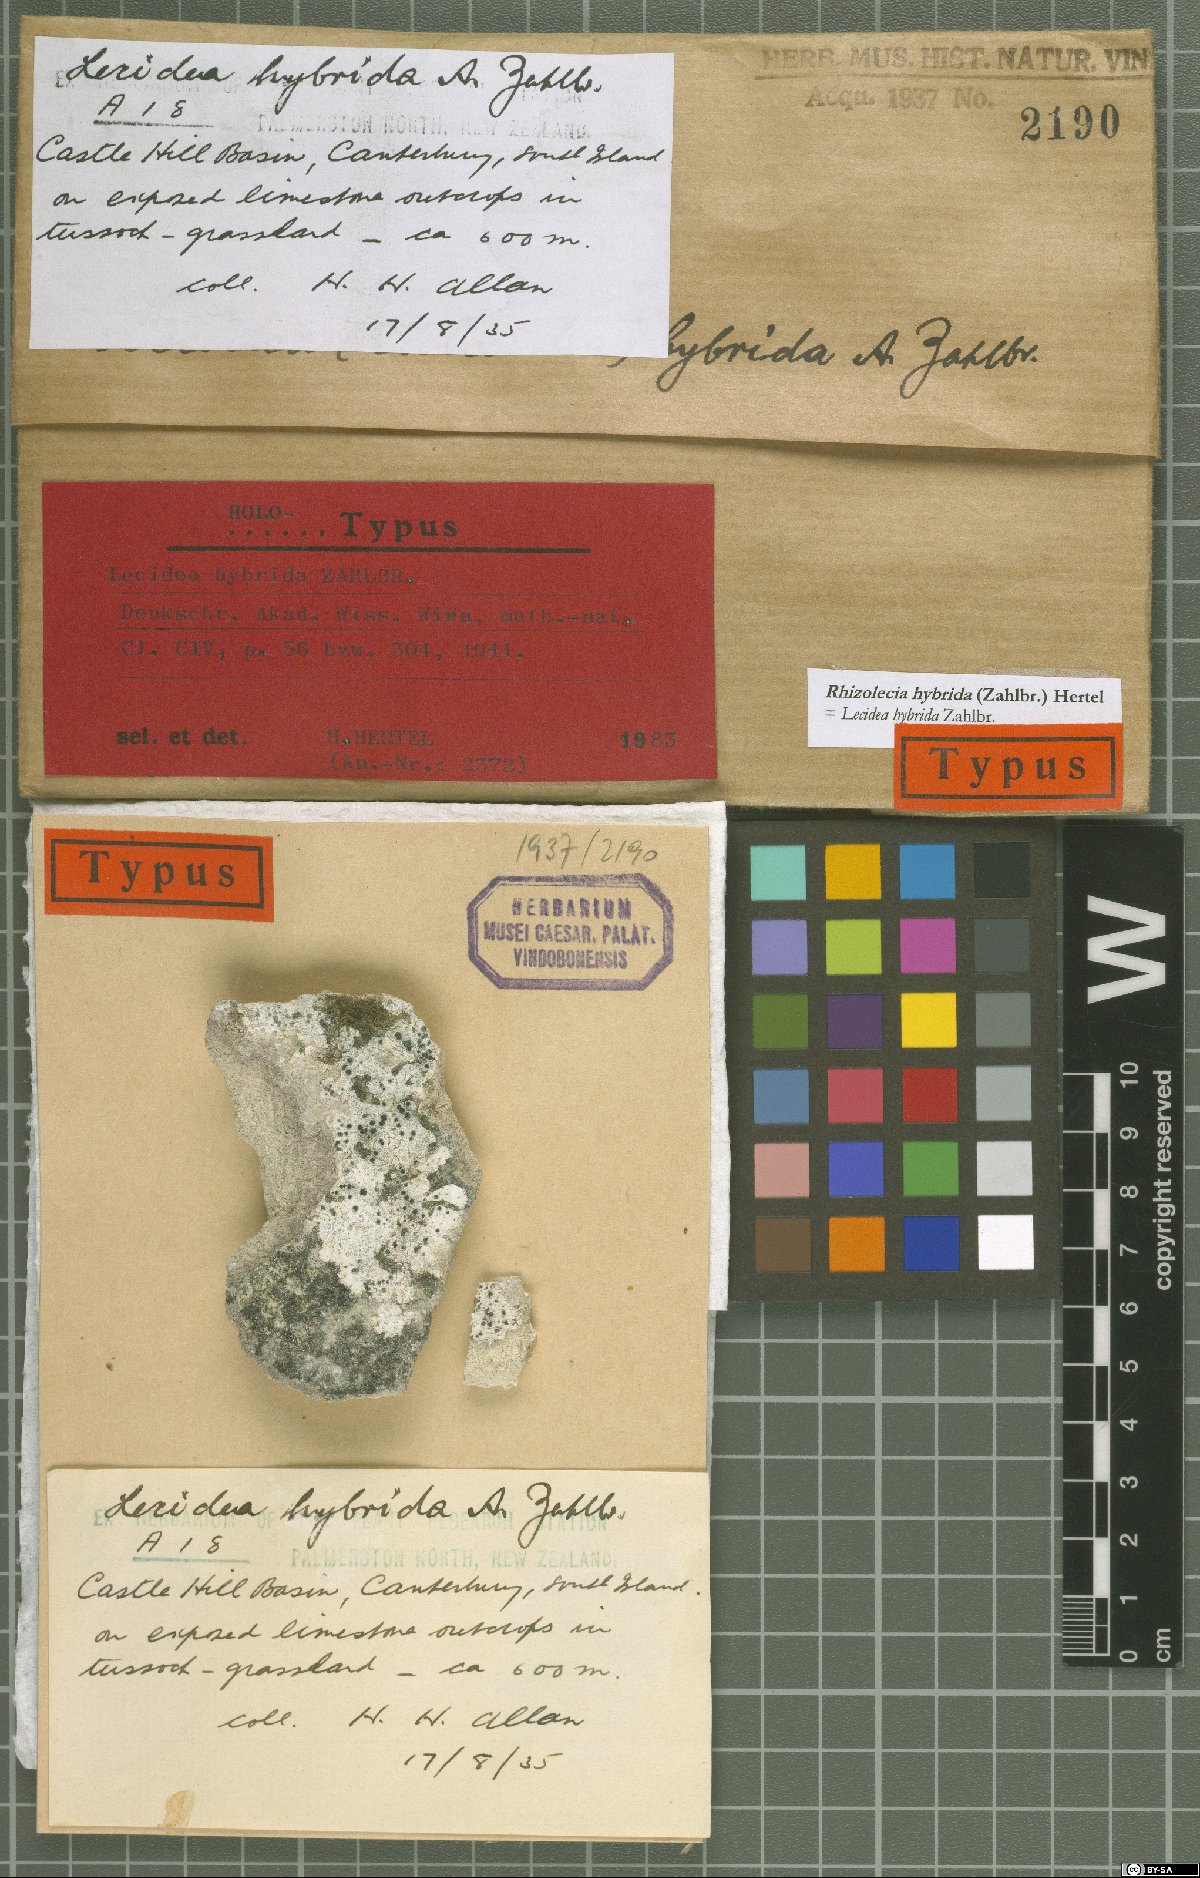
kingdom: Fungi
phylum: Ascomycota
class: Lecanoromycetes
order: Lecideales
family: Lecideaceae
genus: Rhizolecia
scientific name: Rhizolecia hybrida
